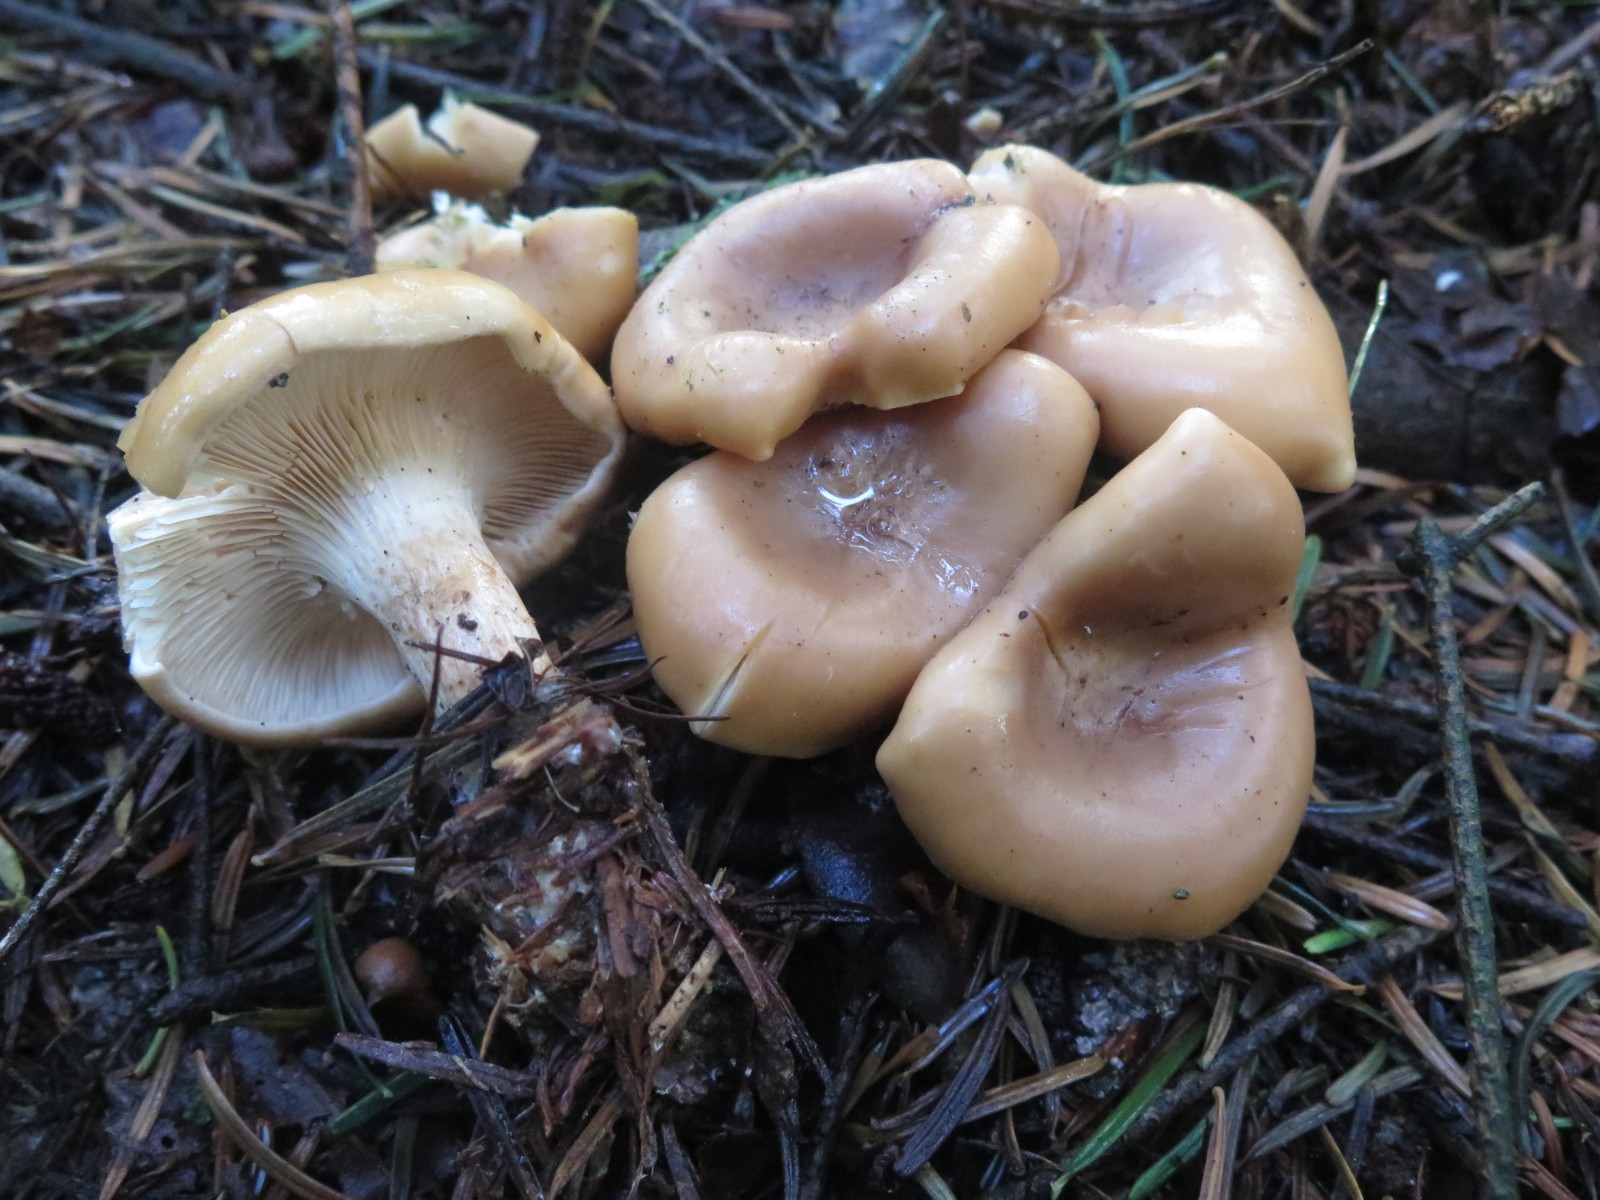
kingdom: Fungi
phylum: Basidiomycota
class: Agaricomycetes
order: Agaricales
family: Tricholomataceae
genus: Paralepista
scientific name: Paralepista flaccida
